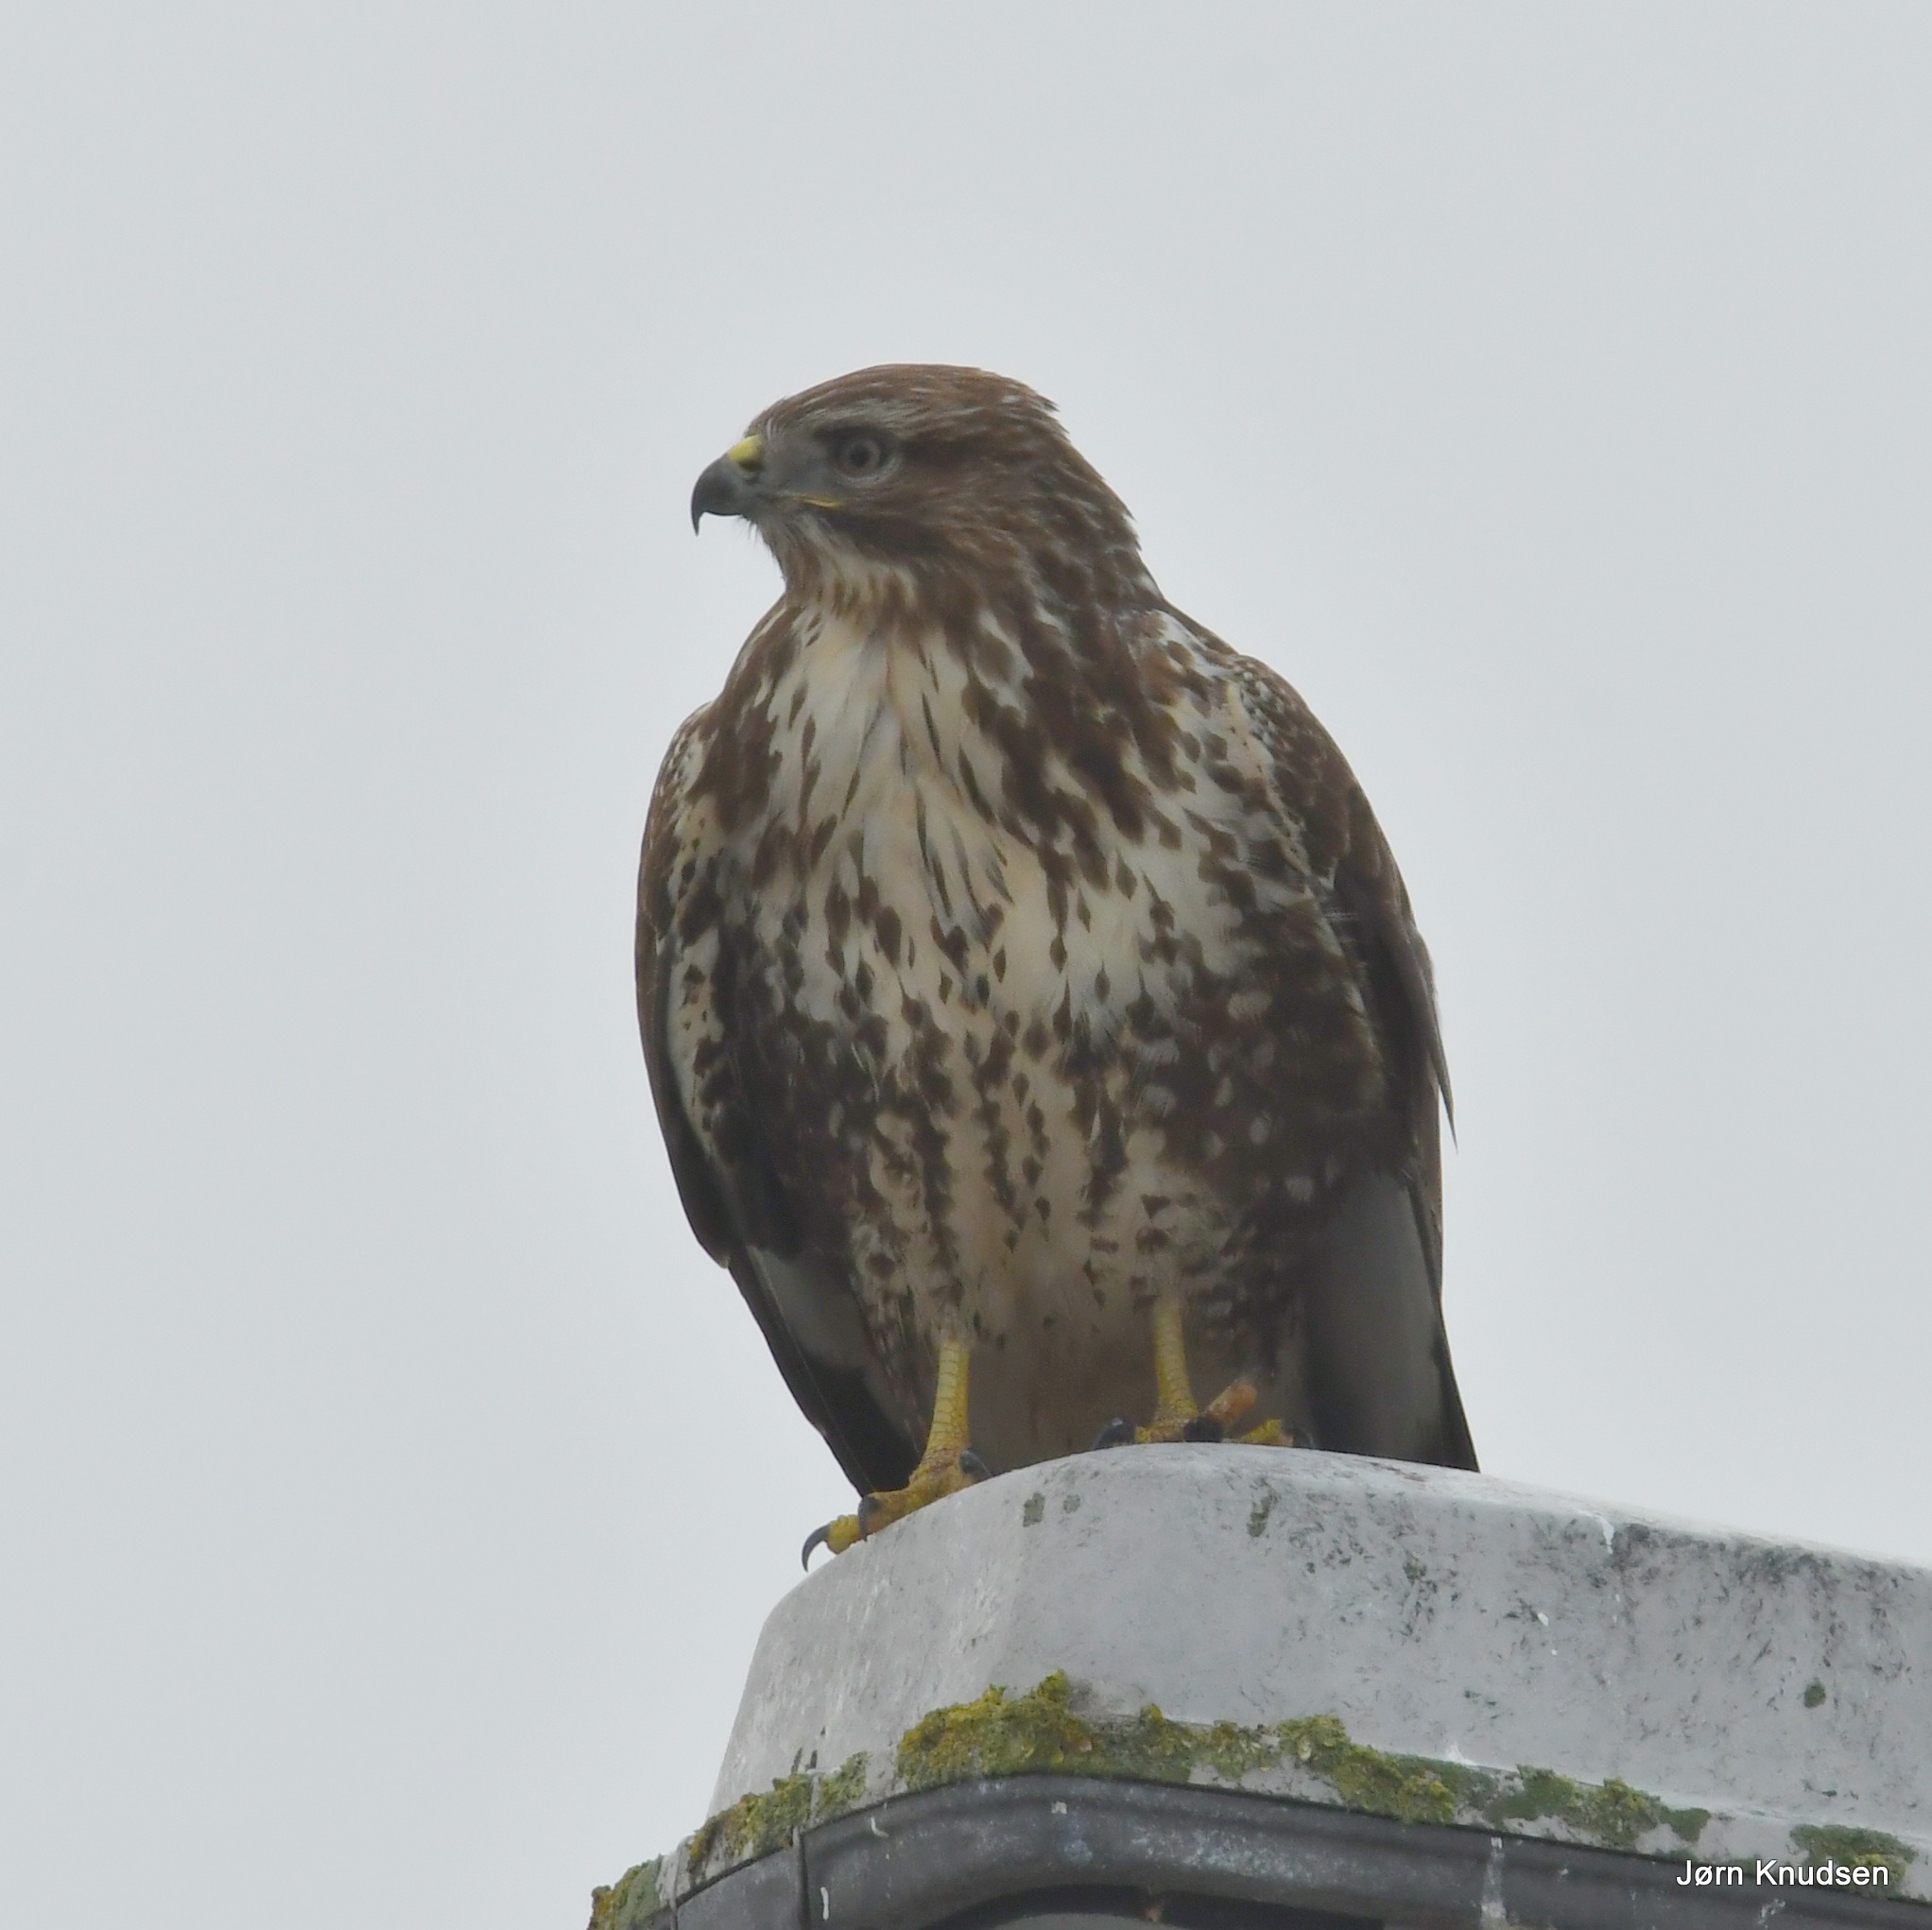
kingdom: Animalia
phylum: Chordata
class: Aves
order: Accipitriformes
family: Accipitridae
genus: Buteo
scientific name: Buteo buteo
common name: Musvåge
